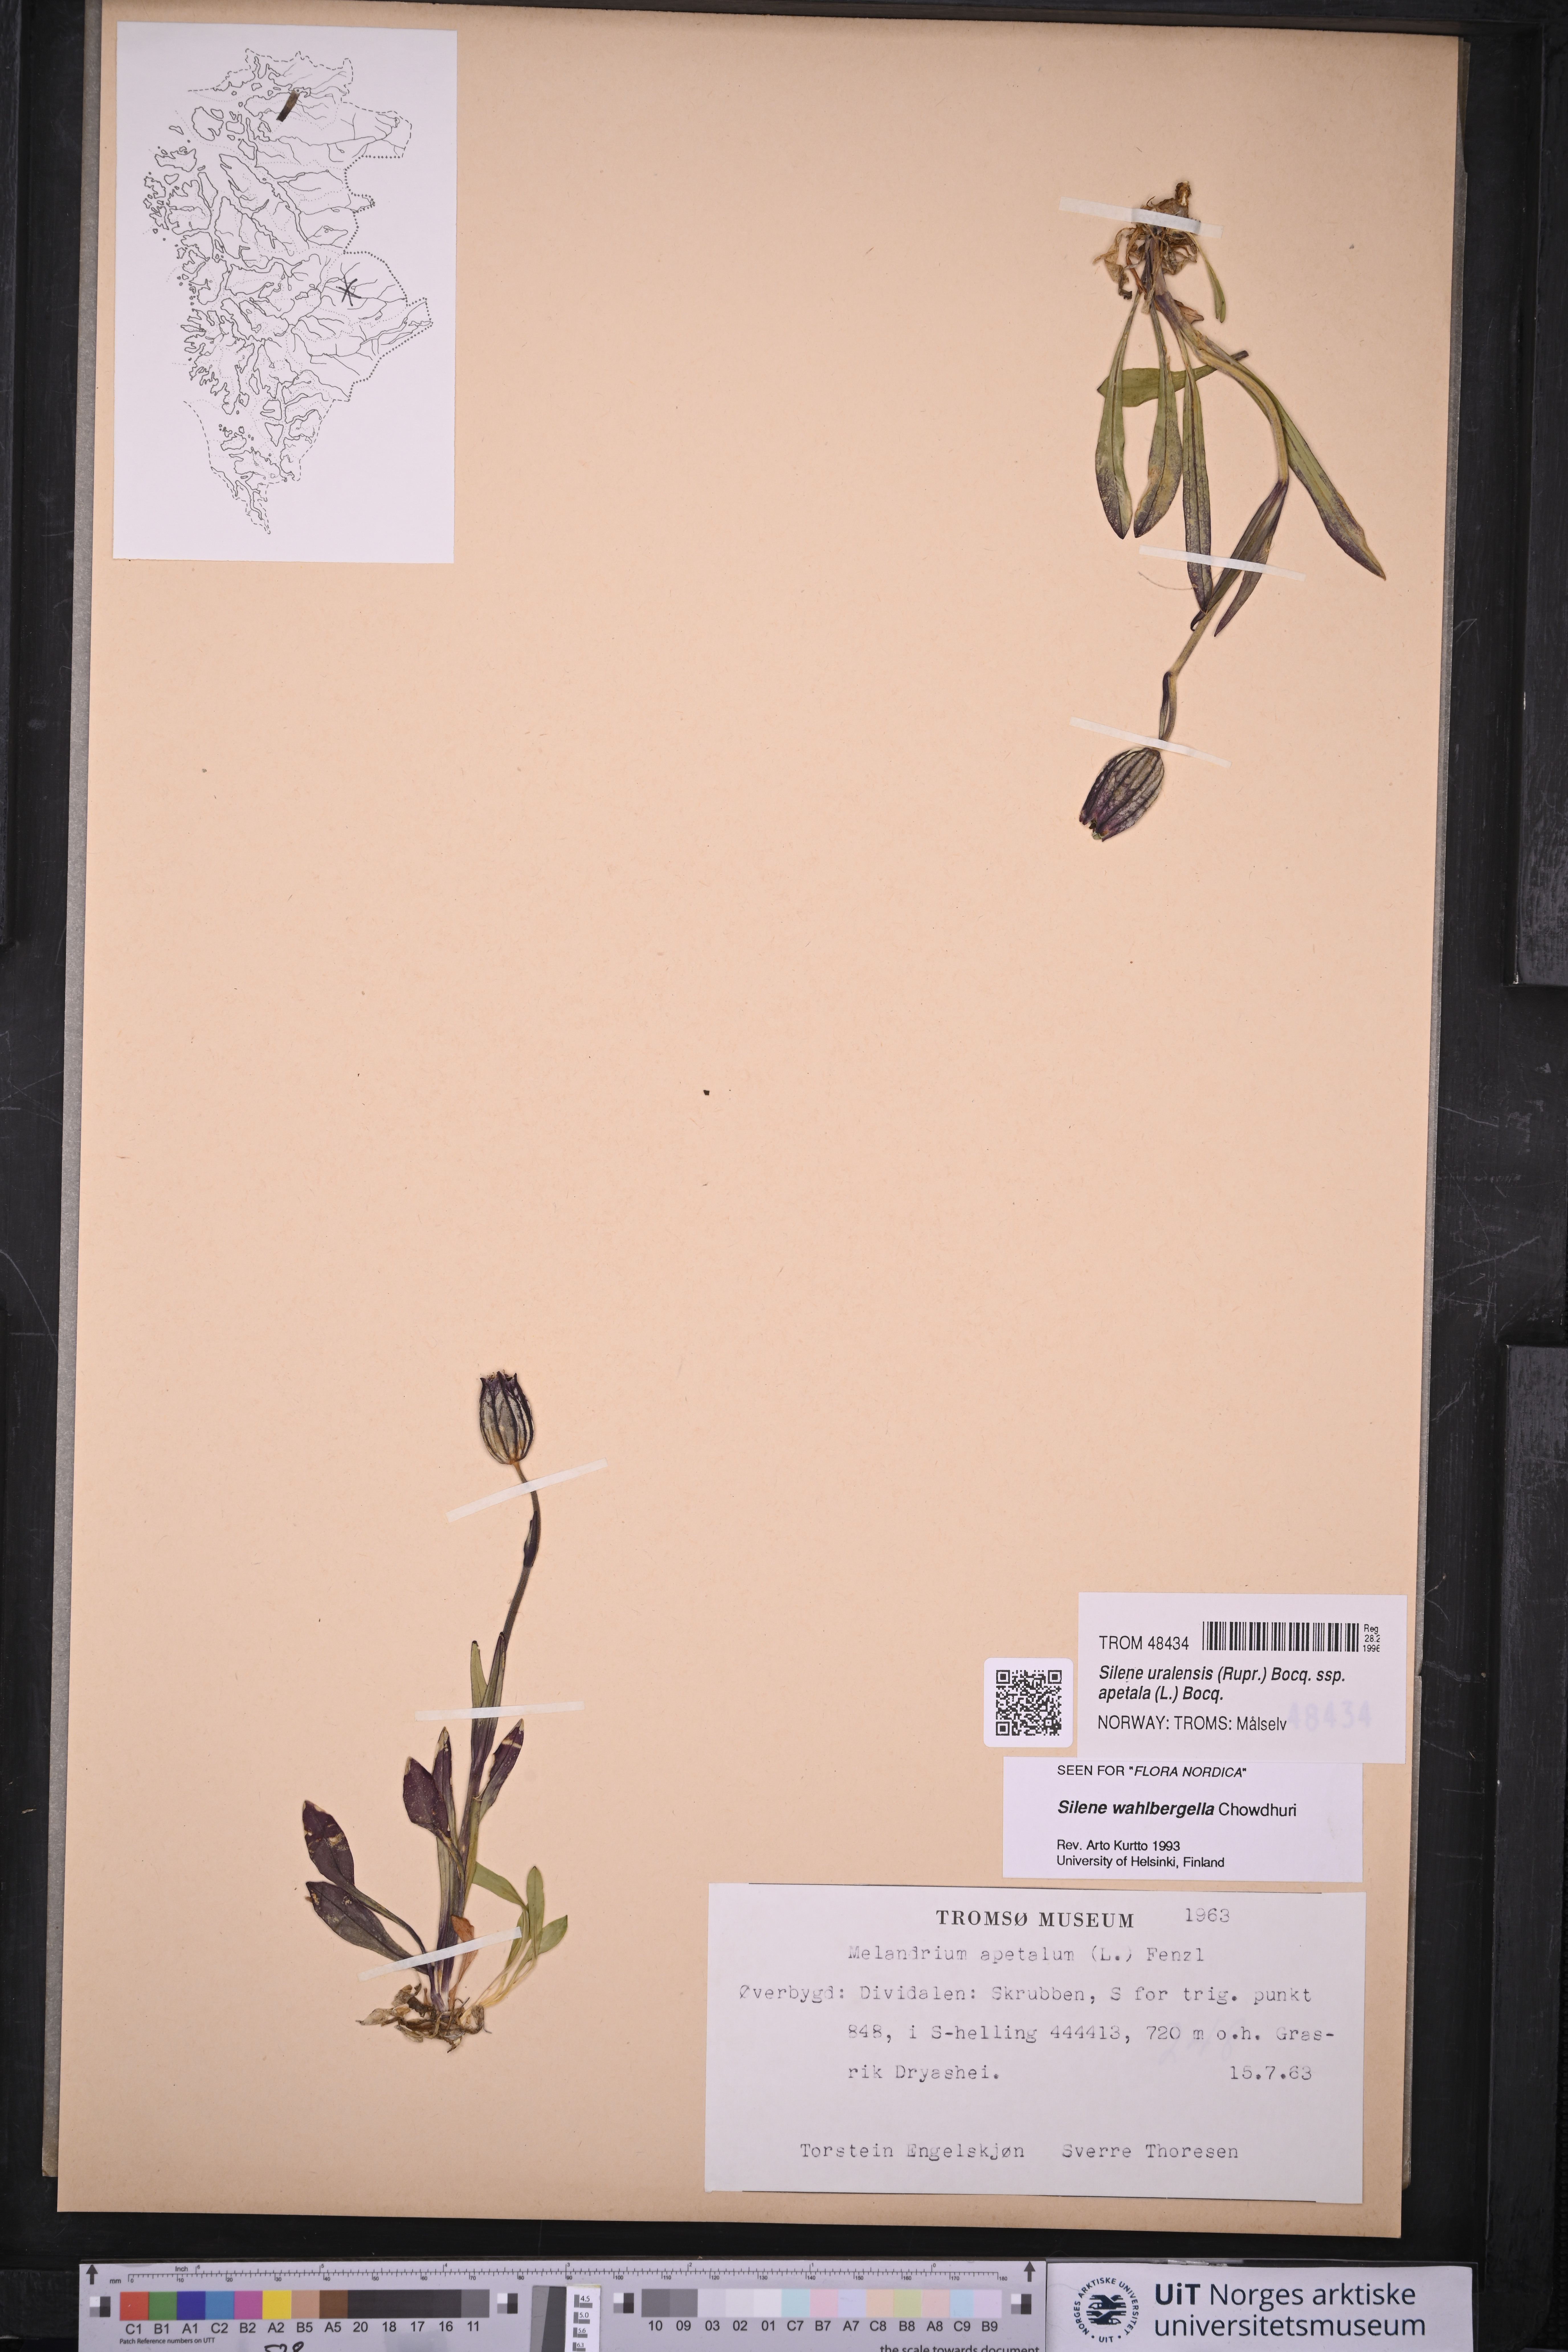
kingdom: Plantae
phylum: Tracheophyta
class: Magnoliopsida
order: Caryophyllales
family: Caryophyllaceae
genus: Silene
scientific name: Silene wahlbergella
